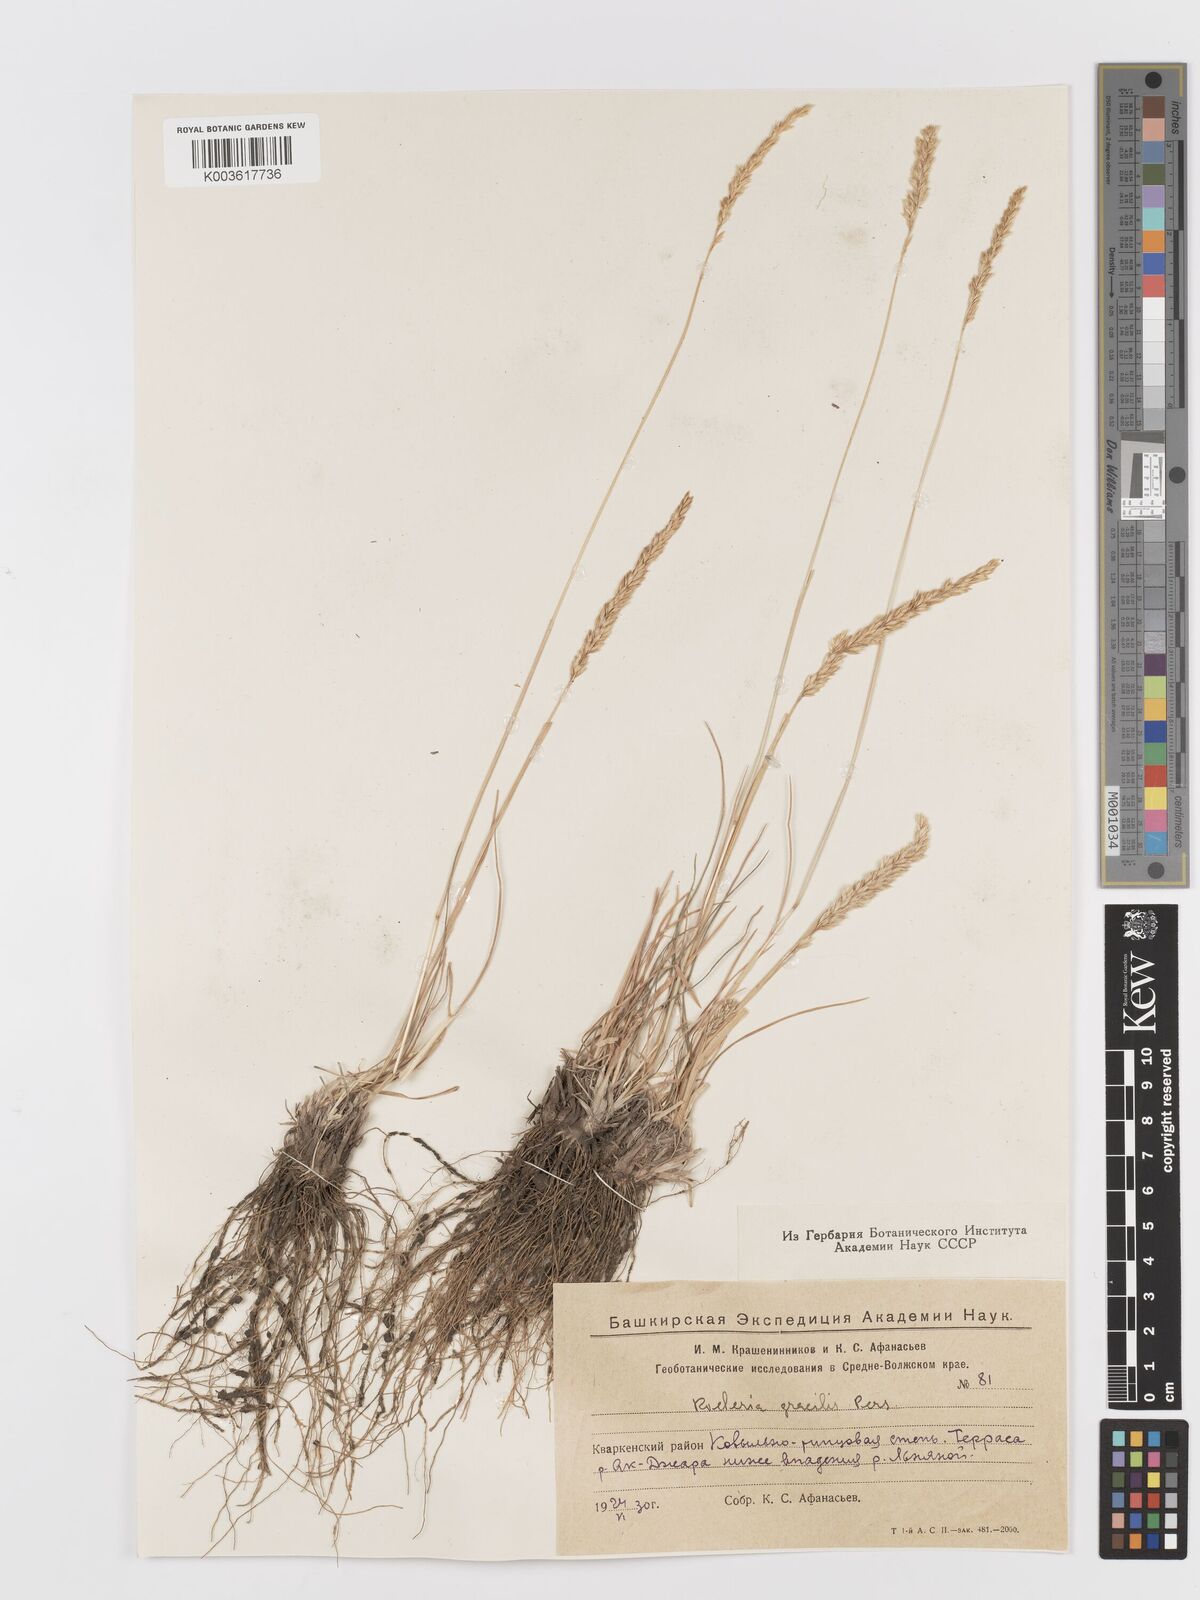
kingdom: Plantae
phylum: Tracheophyta
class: Liliopsida
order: Poales
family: Poaceae
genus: Koeleria
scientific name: Koeleria splendens
